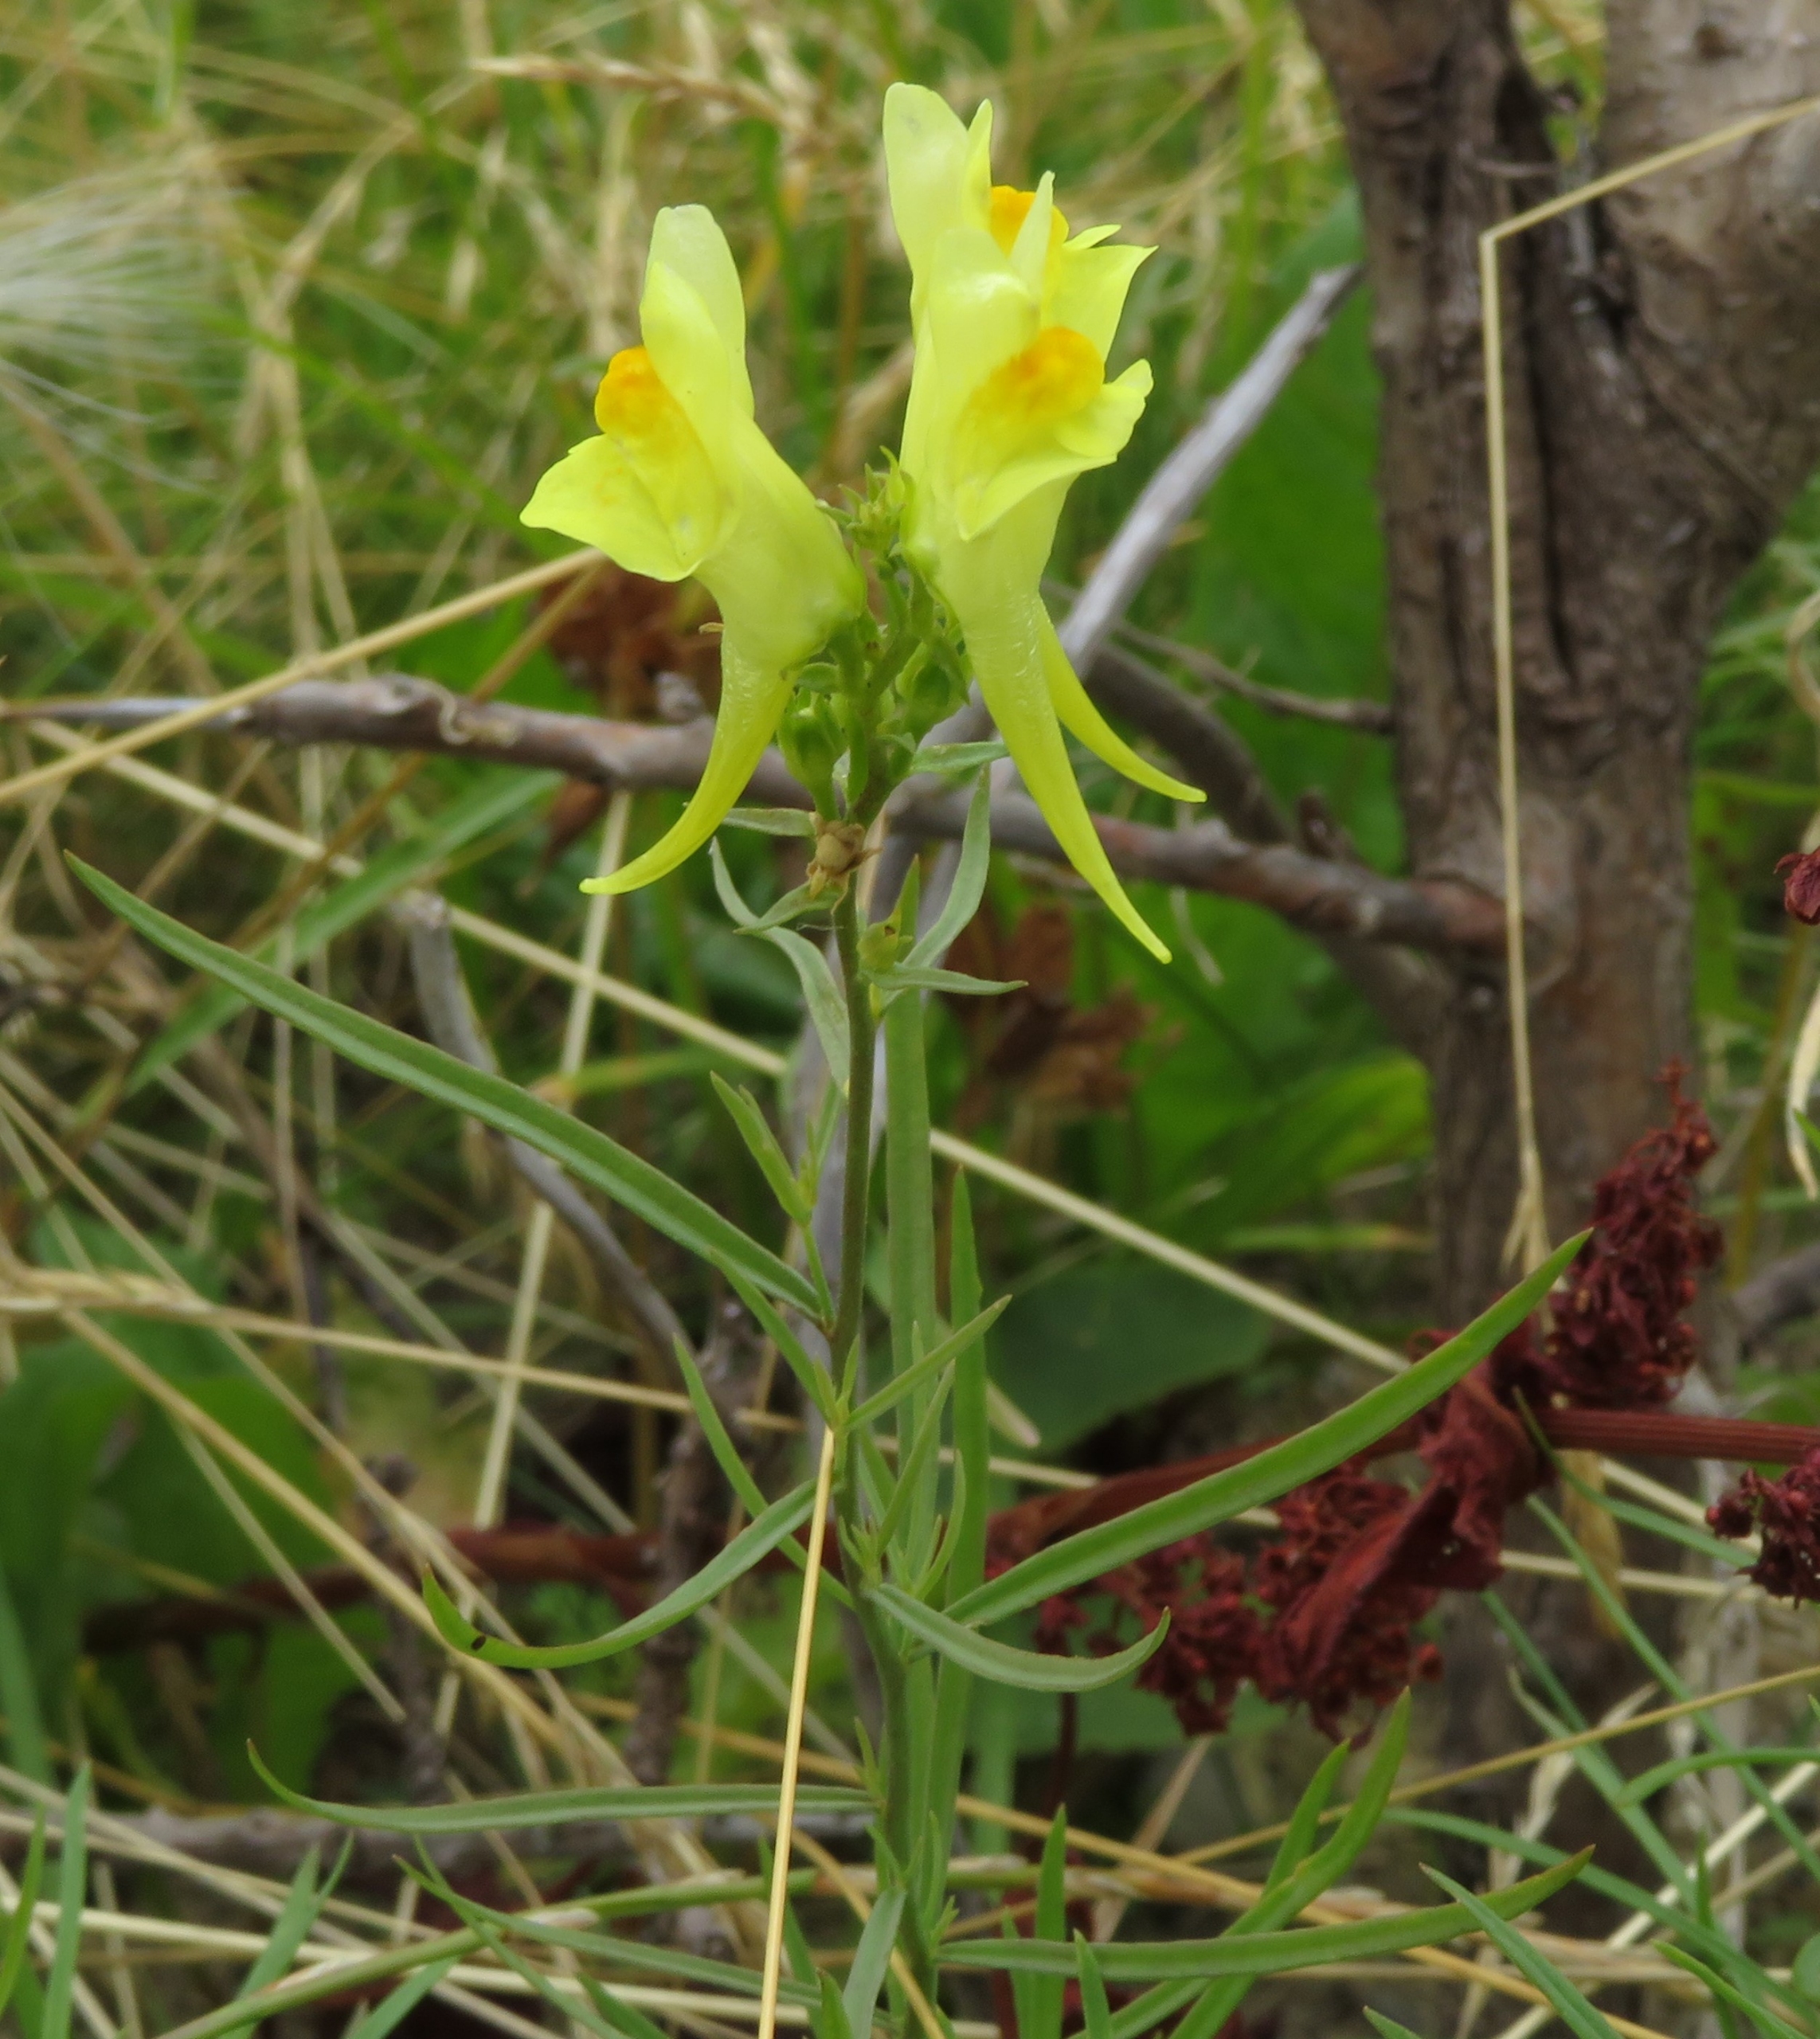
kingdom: Plantae
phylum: Tracheophyta
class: Magnoliopsida
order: Lamiales
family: Plantaginaceae
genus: Linaria
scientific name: Linaria vulgaris
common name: Almindelig torskemund
